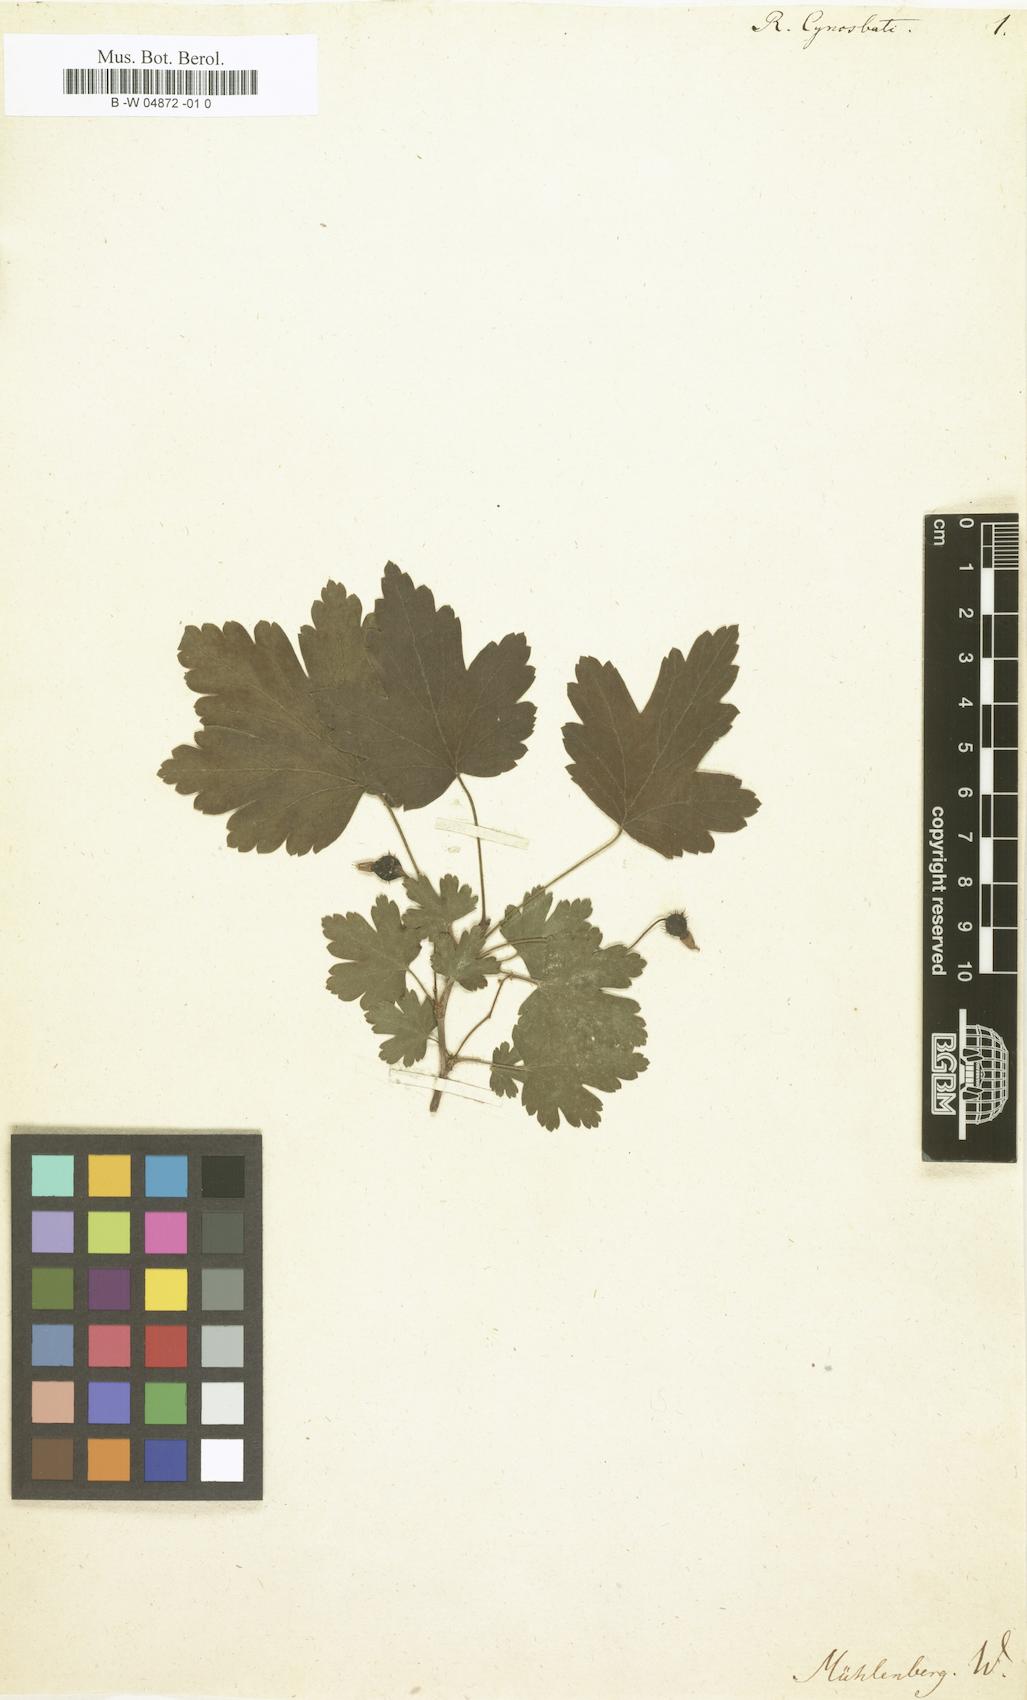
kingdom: Plantae
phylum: Tracheophyta
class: Magnoliopsida
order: Saxifragales
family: Grossulariaceae
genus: Ribes
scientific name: Ribes cynosbati
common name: American gooseberry
